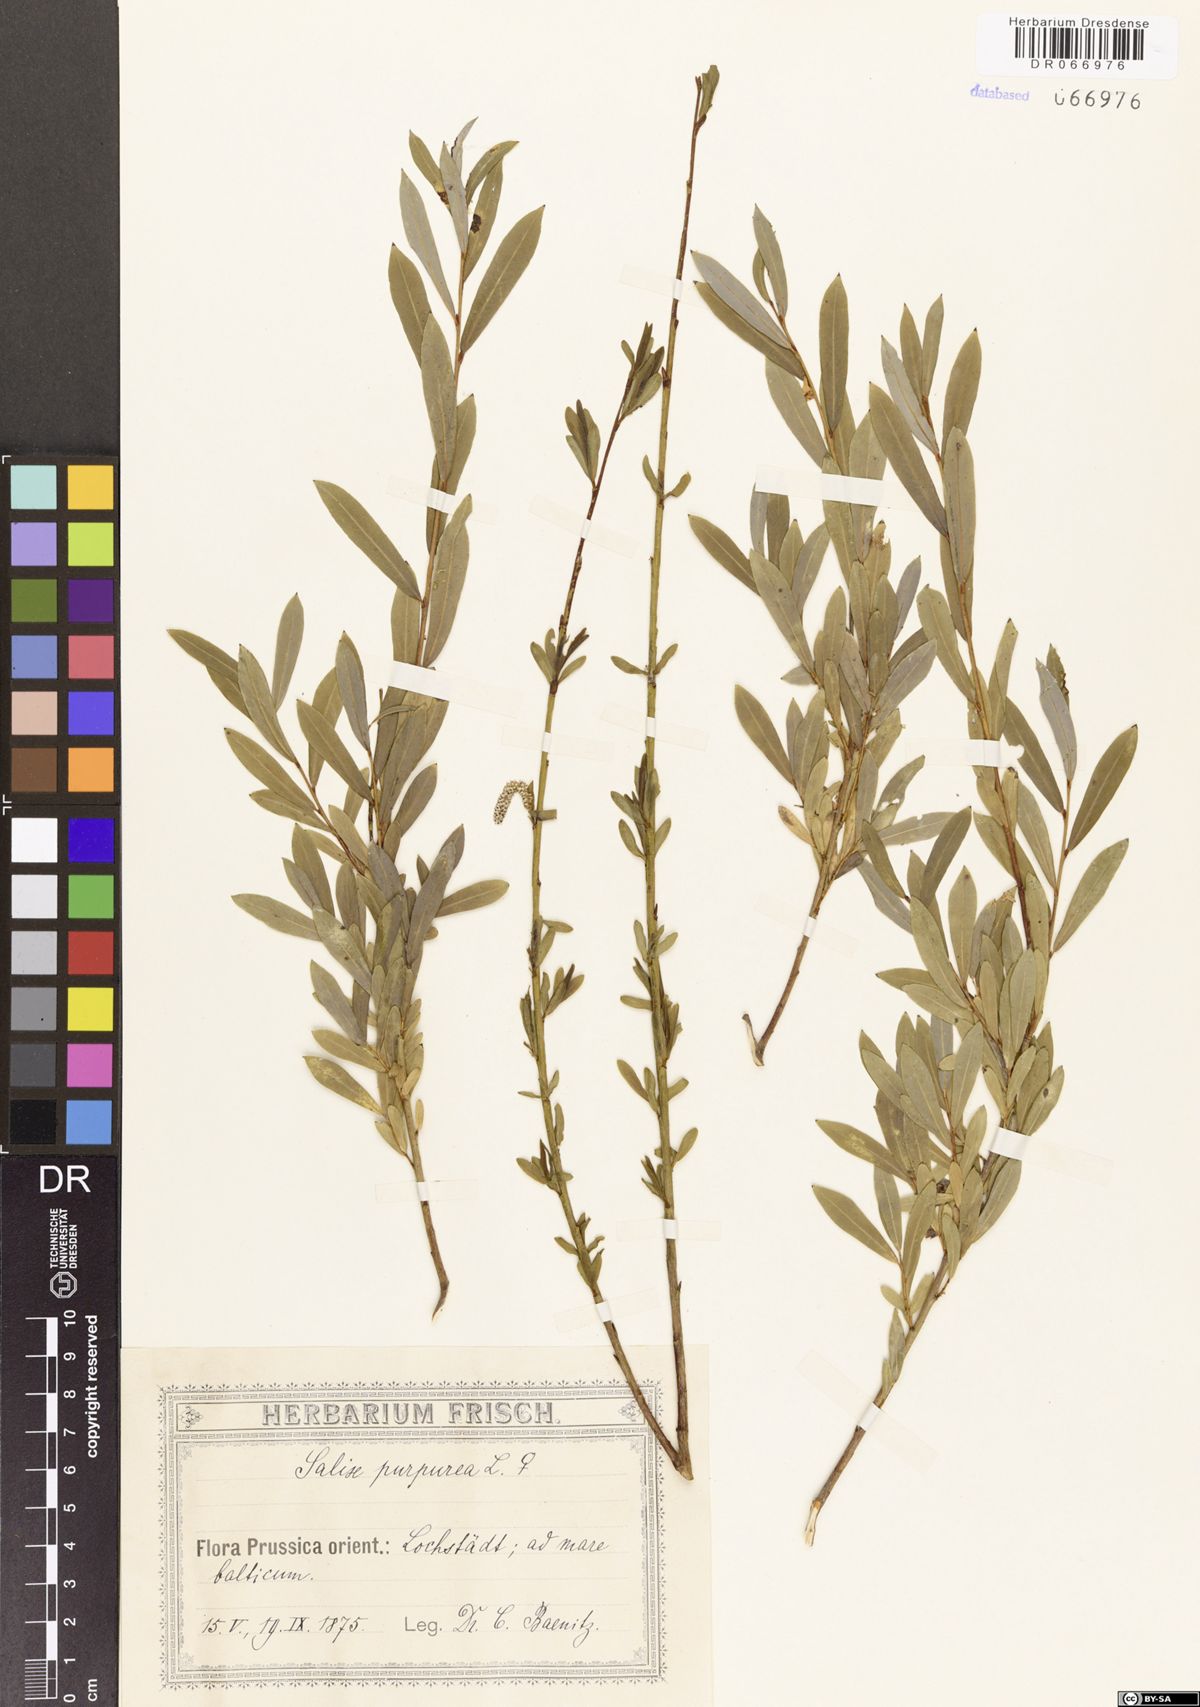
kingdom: Plantae
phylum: Tracheophyta
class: Magnoliopsida
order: Malpighiales
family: Salicaceae
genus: Salix
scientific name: Salix purpurea
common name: Purple willow
